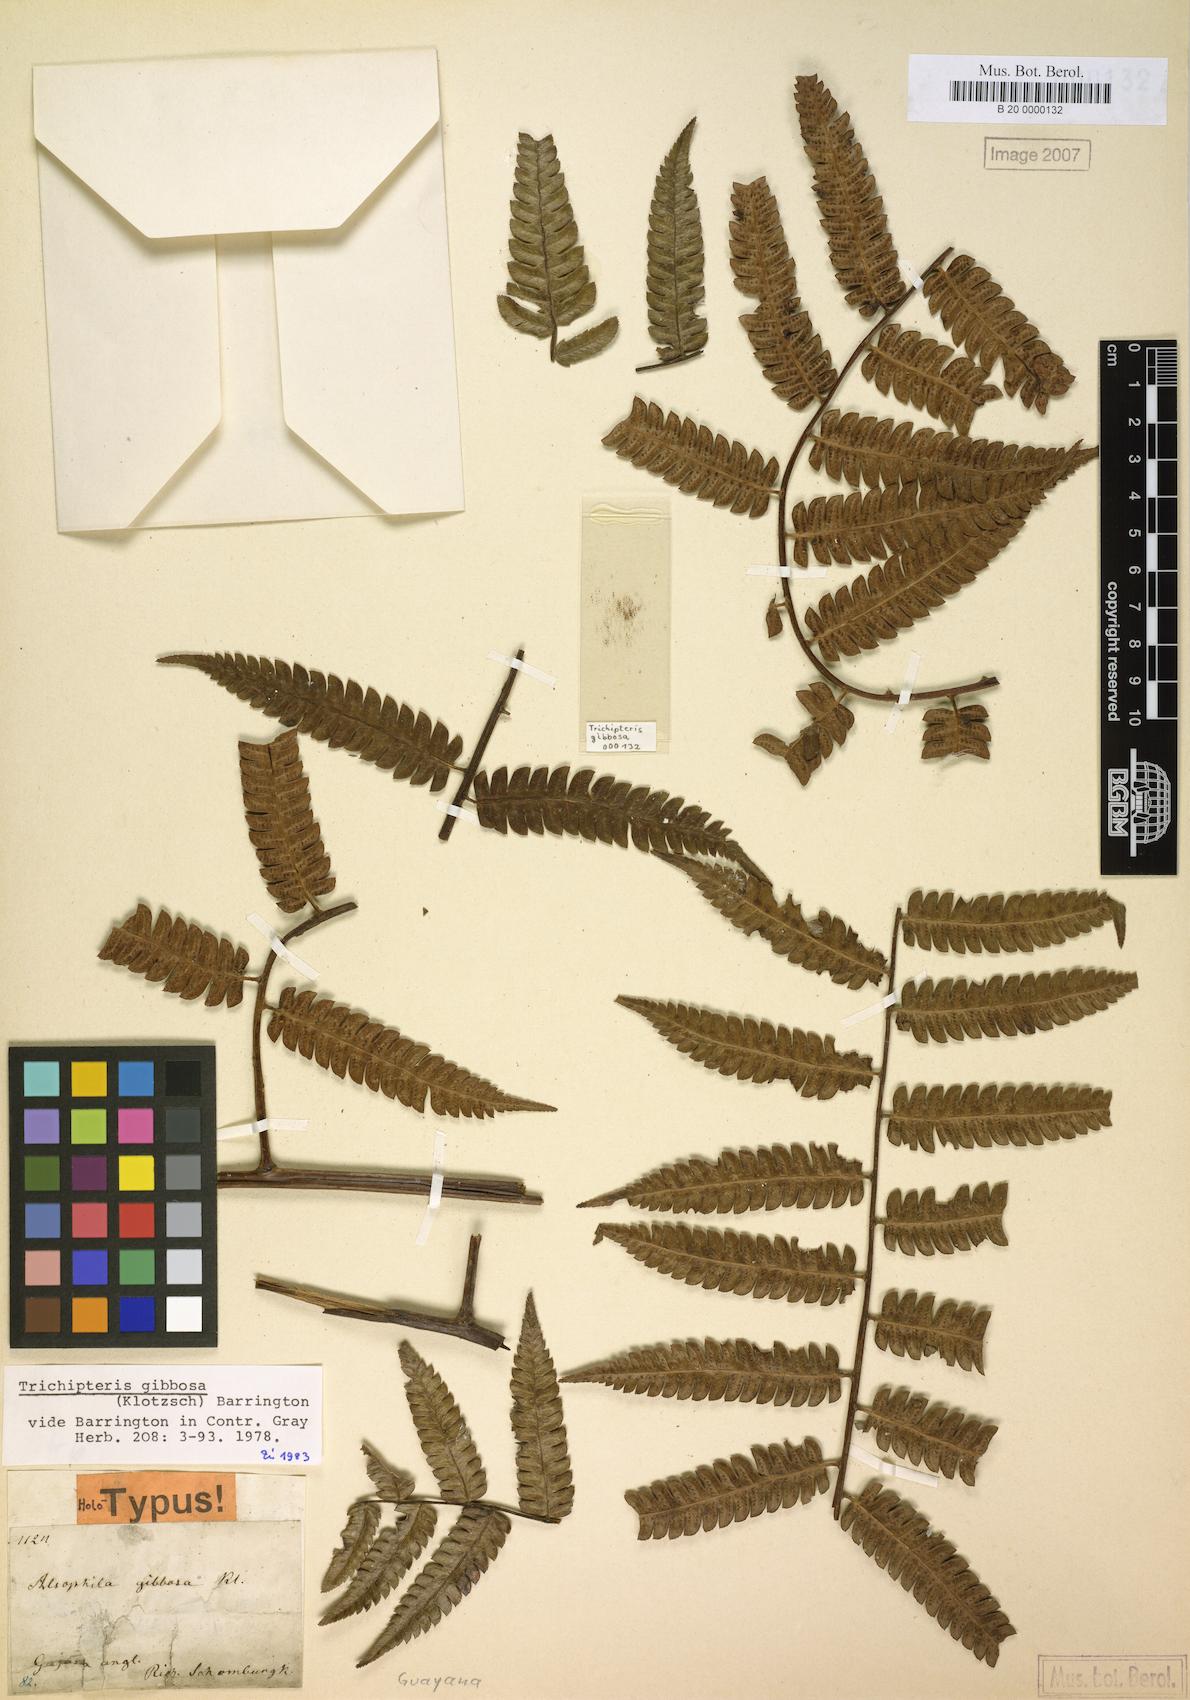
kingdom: Plantae
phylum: Tracheophyta
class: Polypodiopsida
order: Cyatheales
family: Cyatheaceae
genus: Cyathea
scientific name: Cyathea gibbosa
